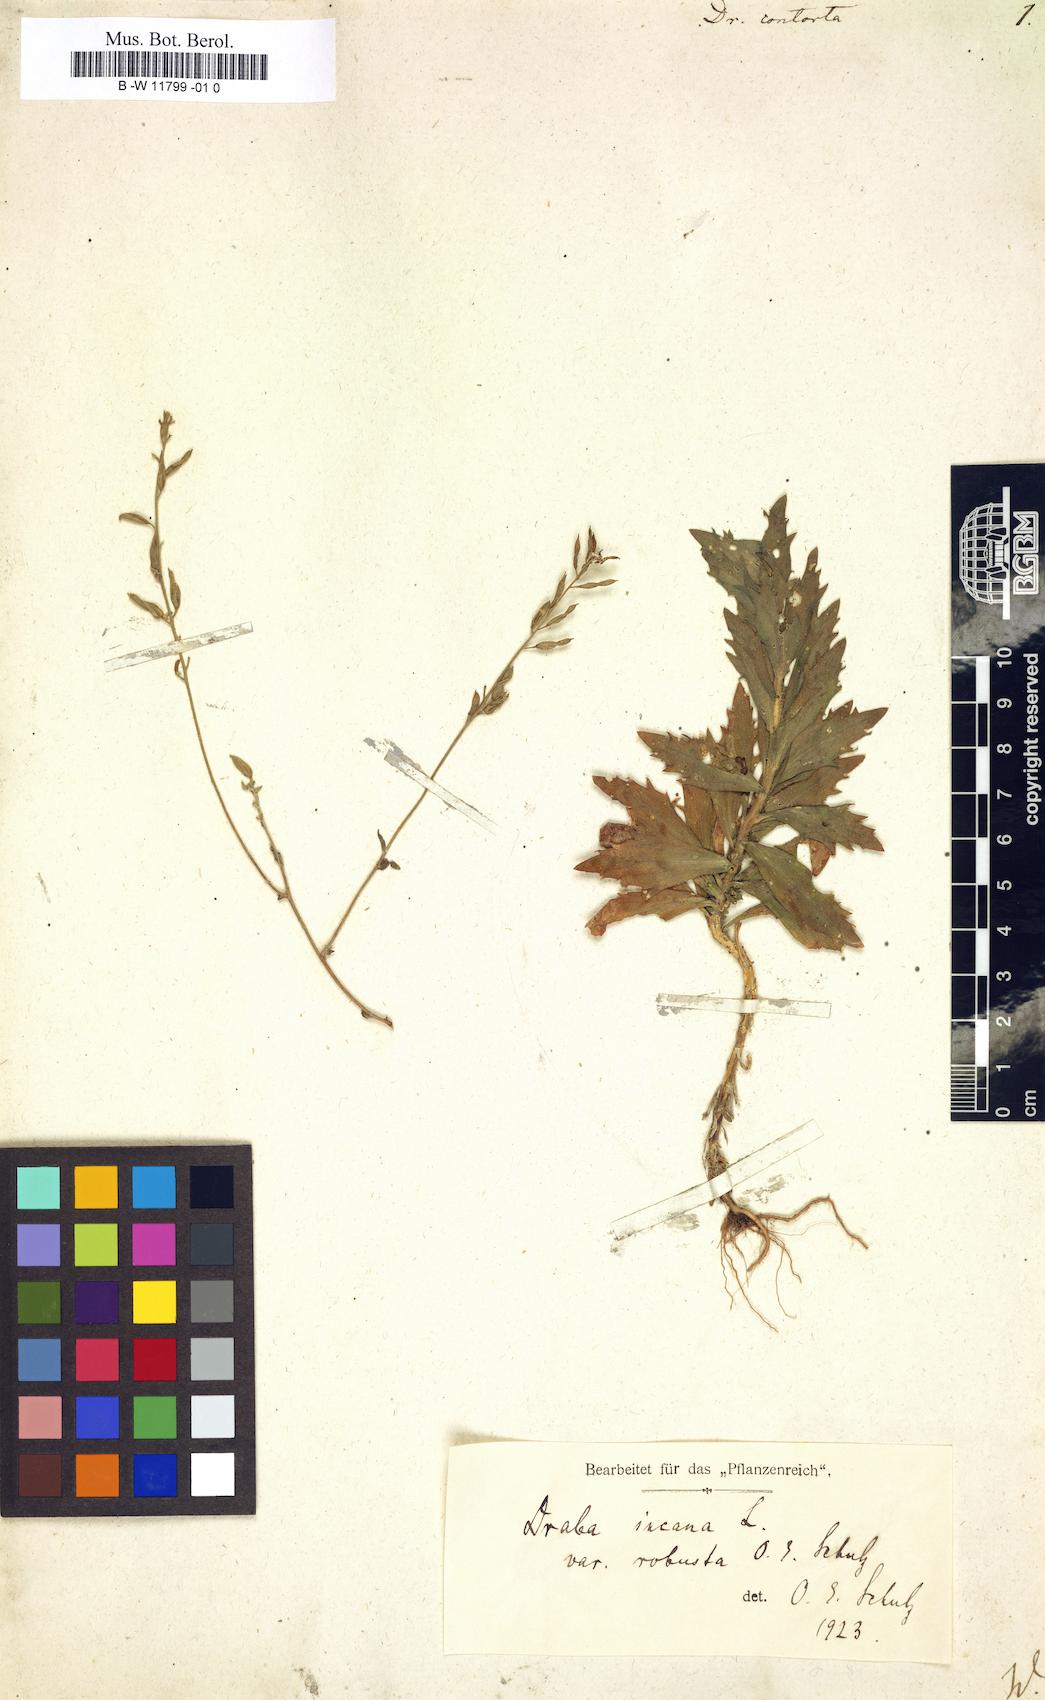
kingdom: Plantae
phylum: Tracheophyta
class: Magnoliopsida
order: Brassicales
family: Brassicaceae
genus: Draba
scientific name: Draba incana
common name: Hoary whitlow-grass
